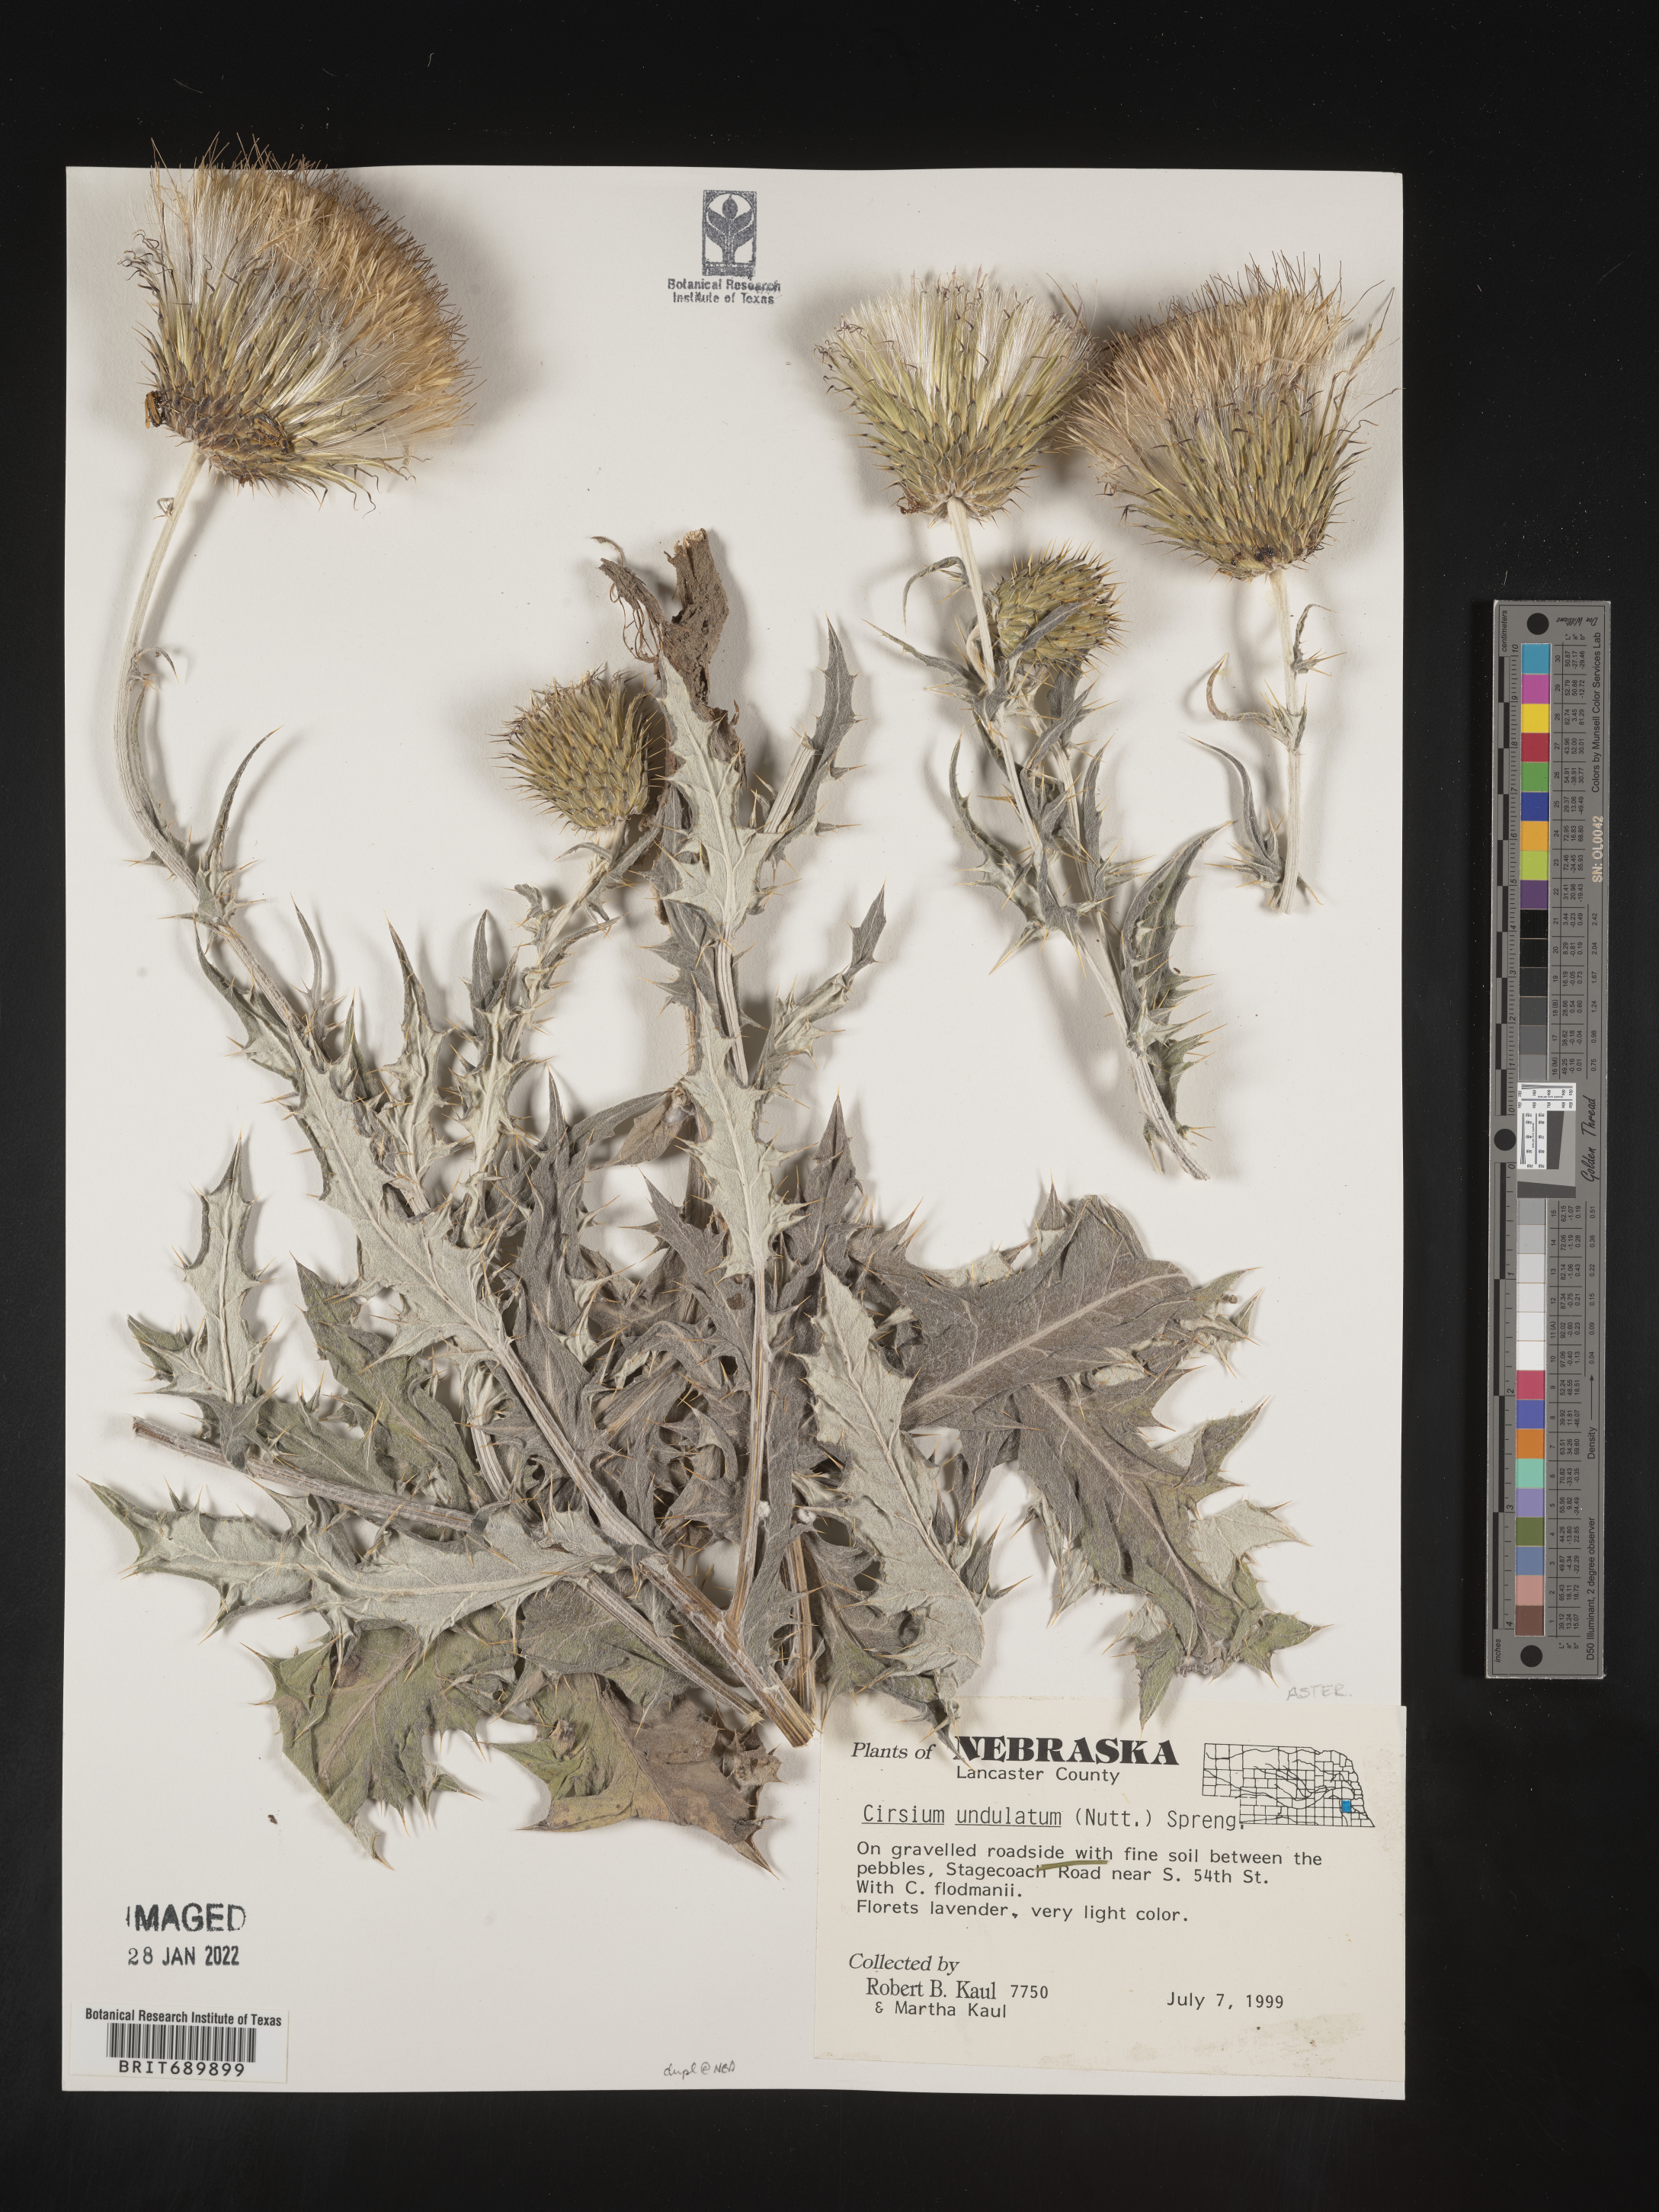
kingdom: Plantae
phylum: Tracheophyta
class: Magnoliopsida
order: Asterales
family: Asteraceae
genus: Cirsium
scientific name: Cirsium undulatum
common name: Pasture thistle
